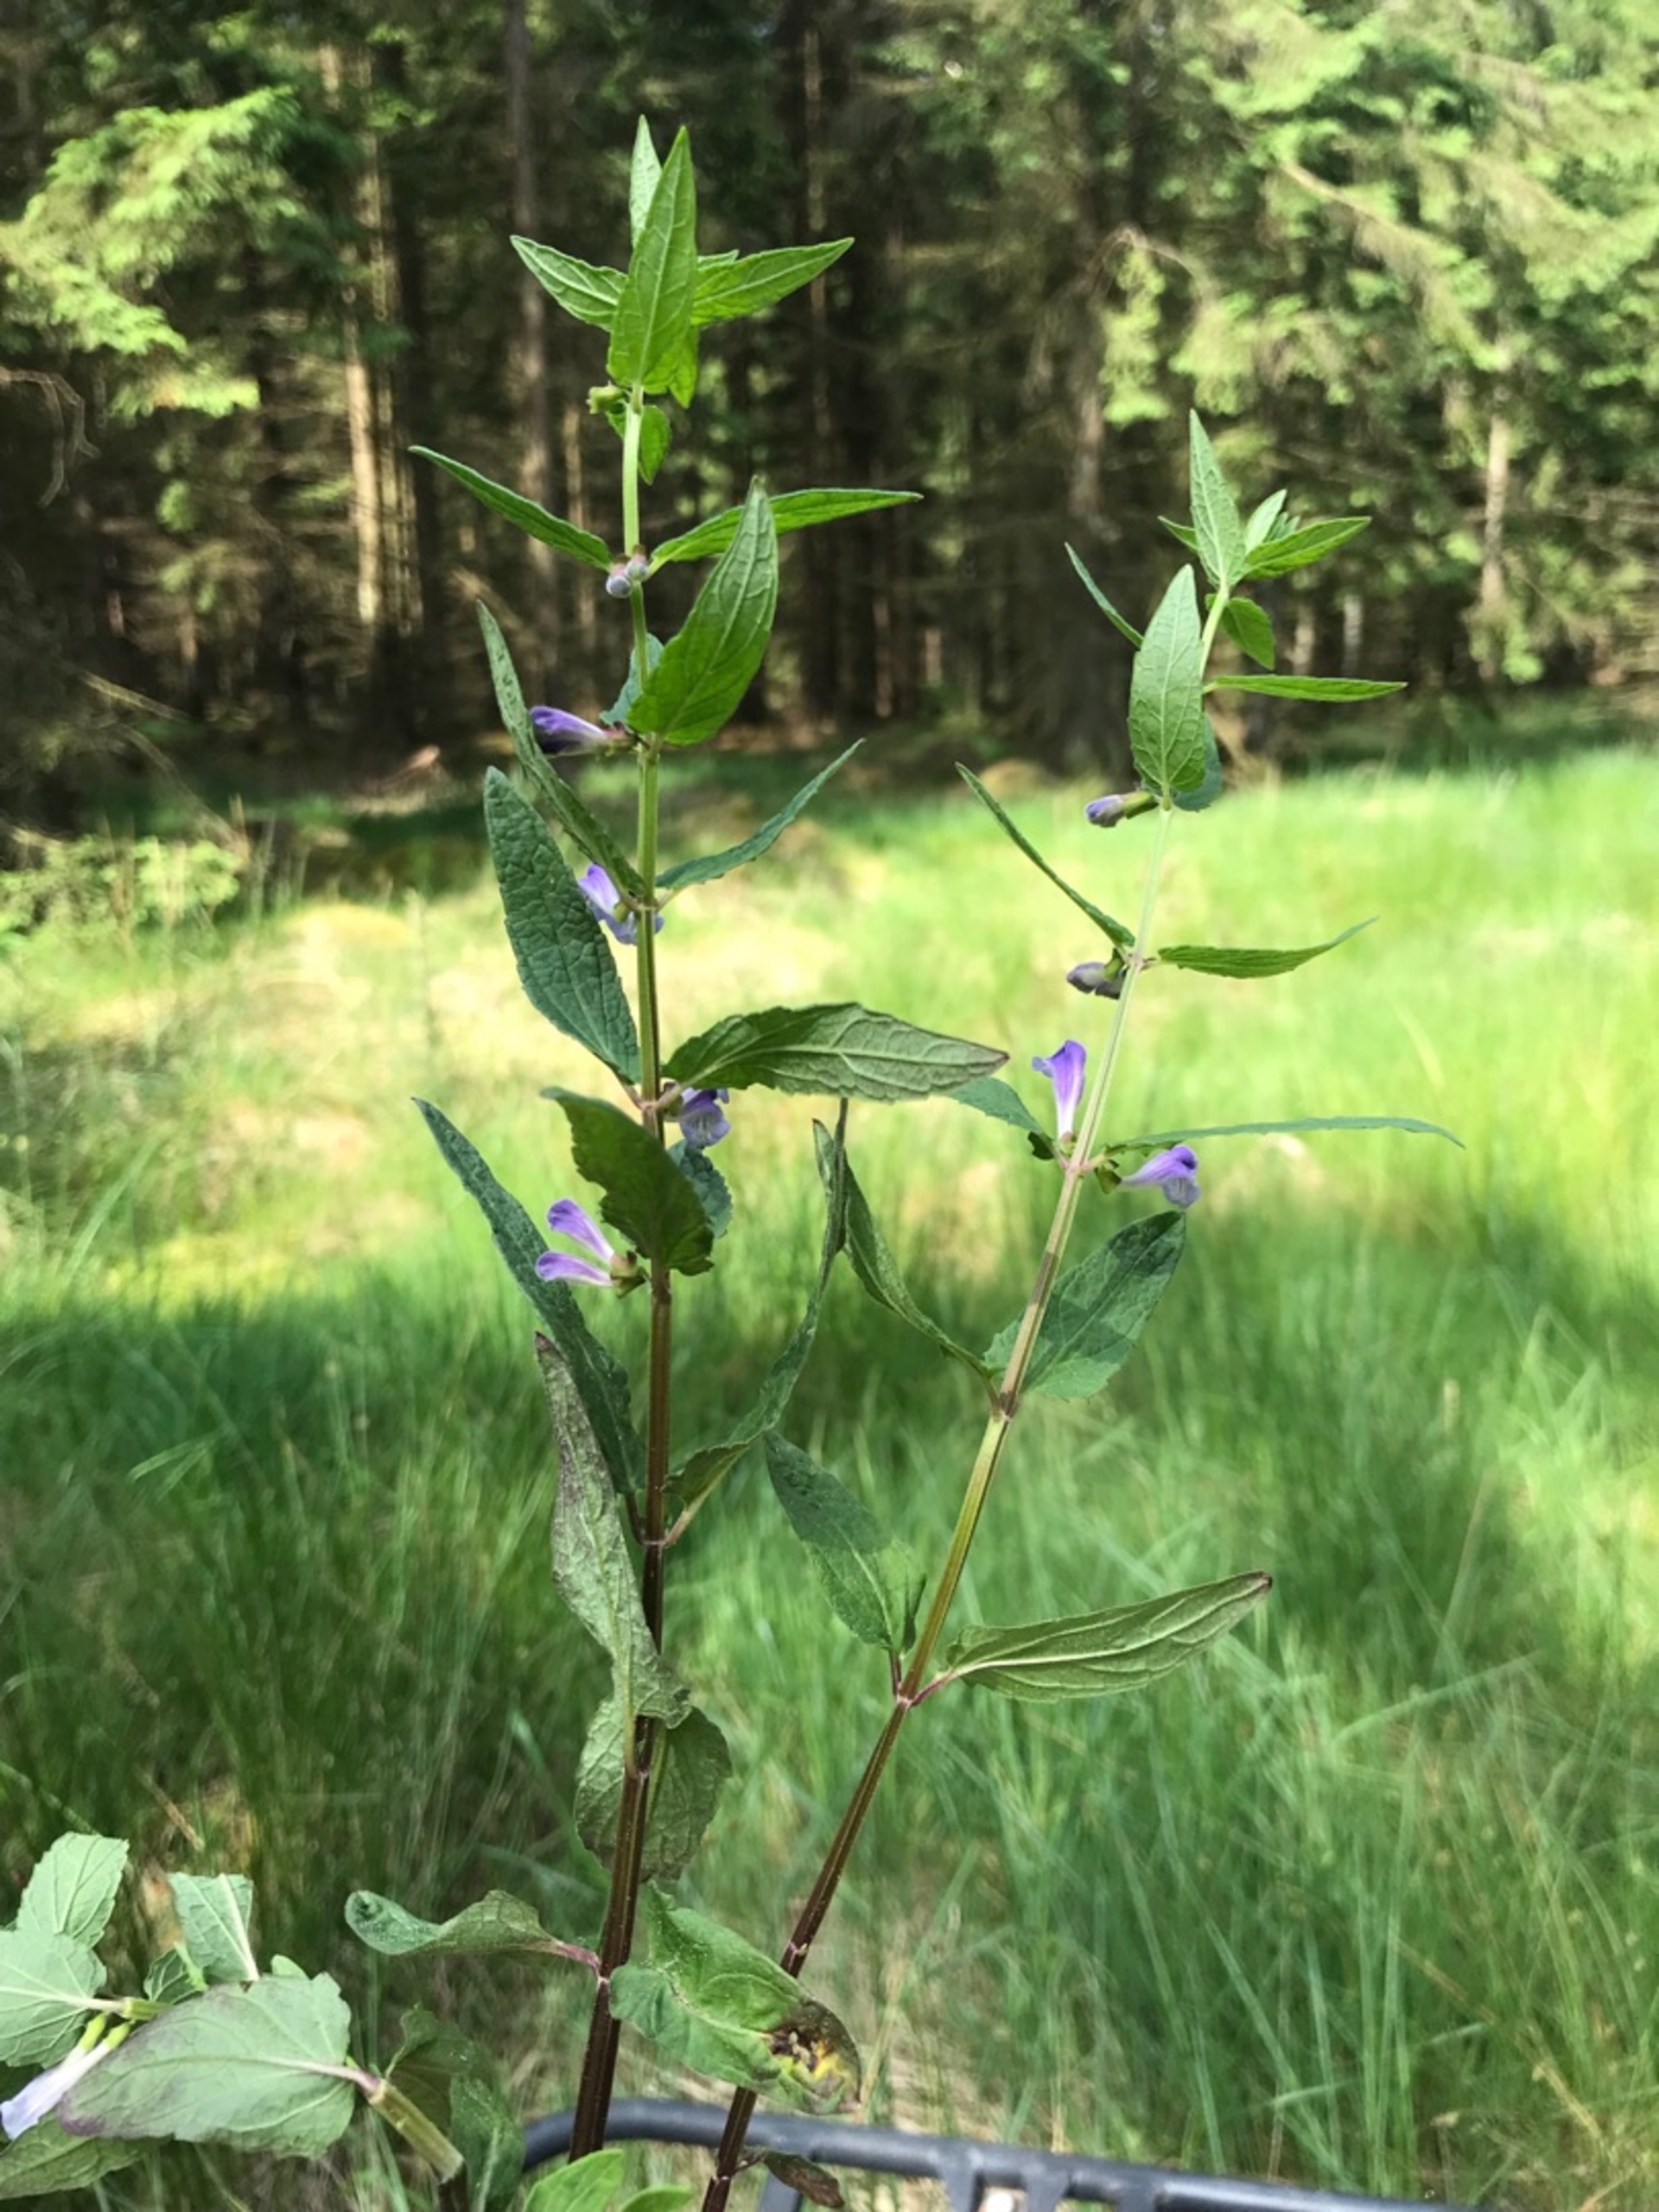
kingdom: Plantae
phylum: Tracheophyta
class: Magnoliopsida
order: Lamiales
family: Lamiaceae
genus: Scutellaria
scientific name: Scutellaria galericulata
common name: Almindelig skjolddrager
